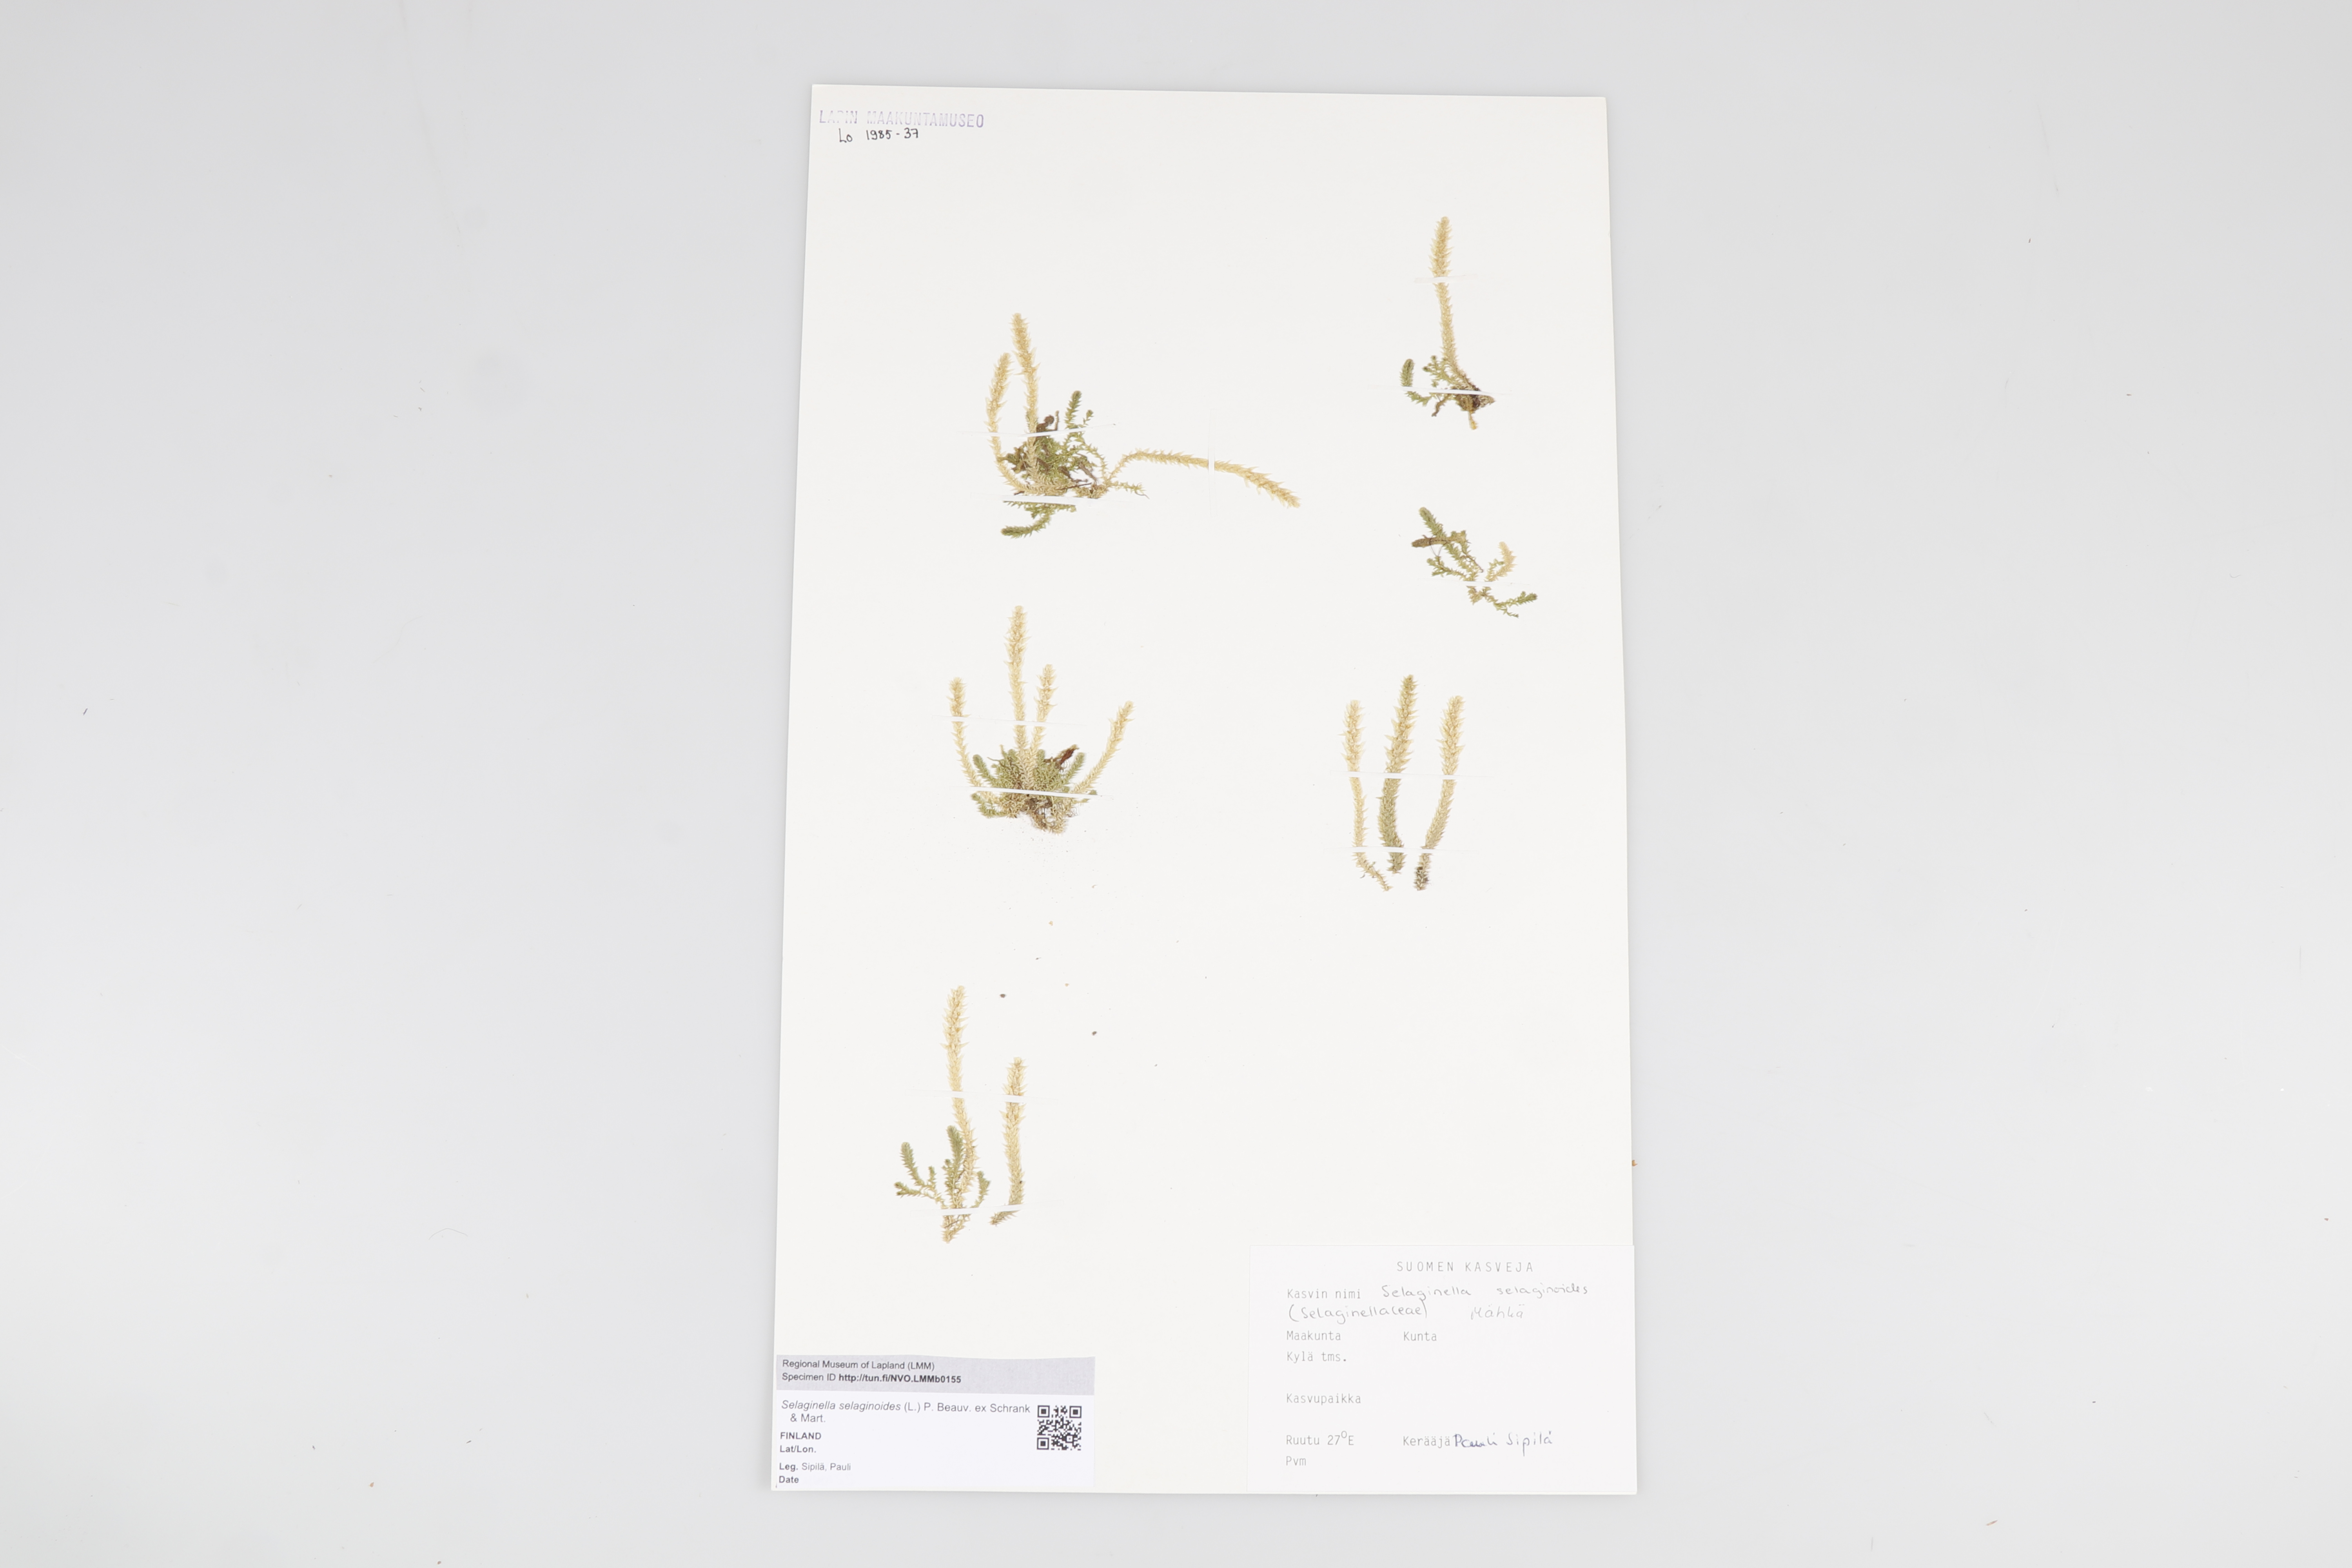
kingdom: Plantae
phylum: Tracheophyta
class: Lycopodiopsida
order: Selaginellales
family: Selaginellaceae
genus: Selaginella
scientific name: Selaginella selaginoides
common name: Prickly mountain-moss
